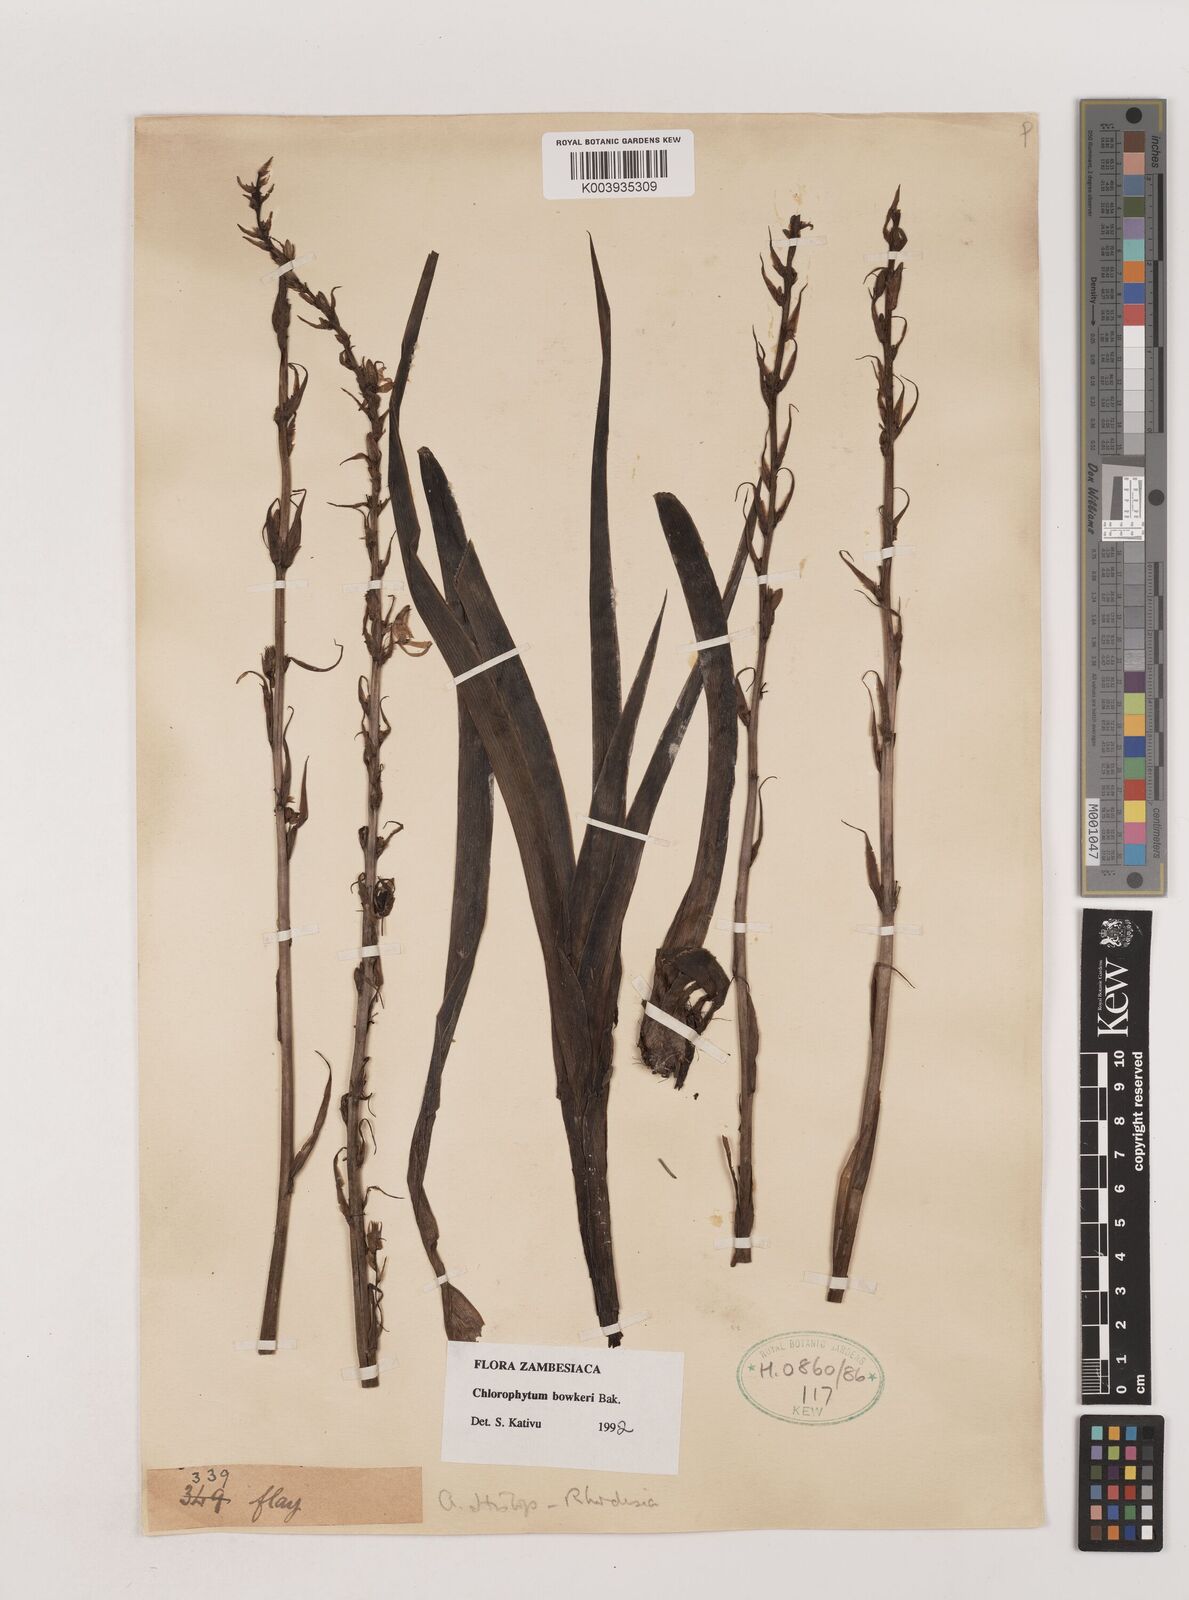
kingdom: Plantae
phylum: Tracheophyta
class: Liliopsida
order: Asparagales
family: Asparagaceae
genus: Chlorophytum
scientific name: Chlorophytum bowkeri
